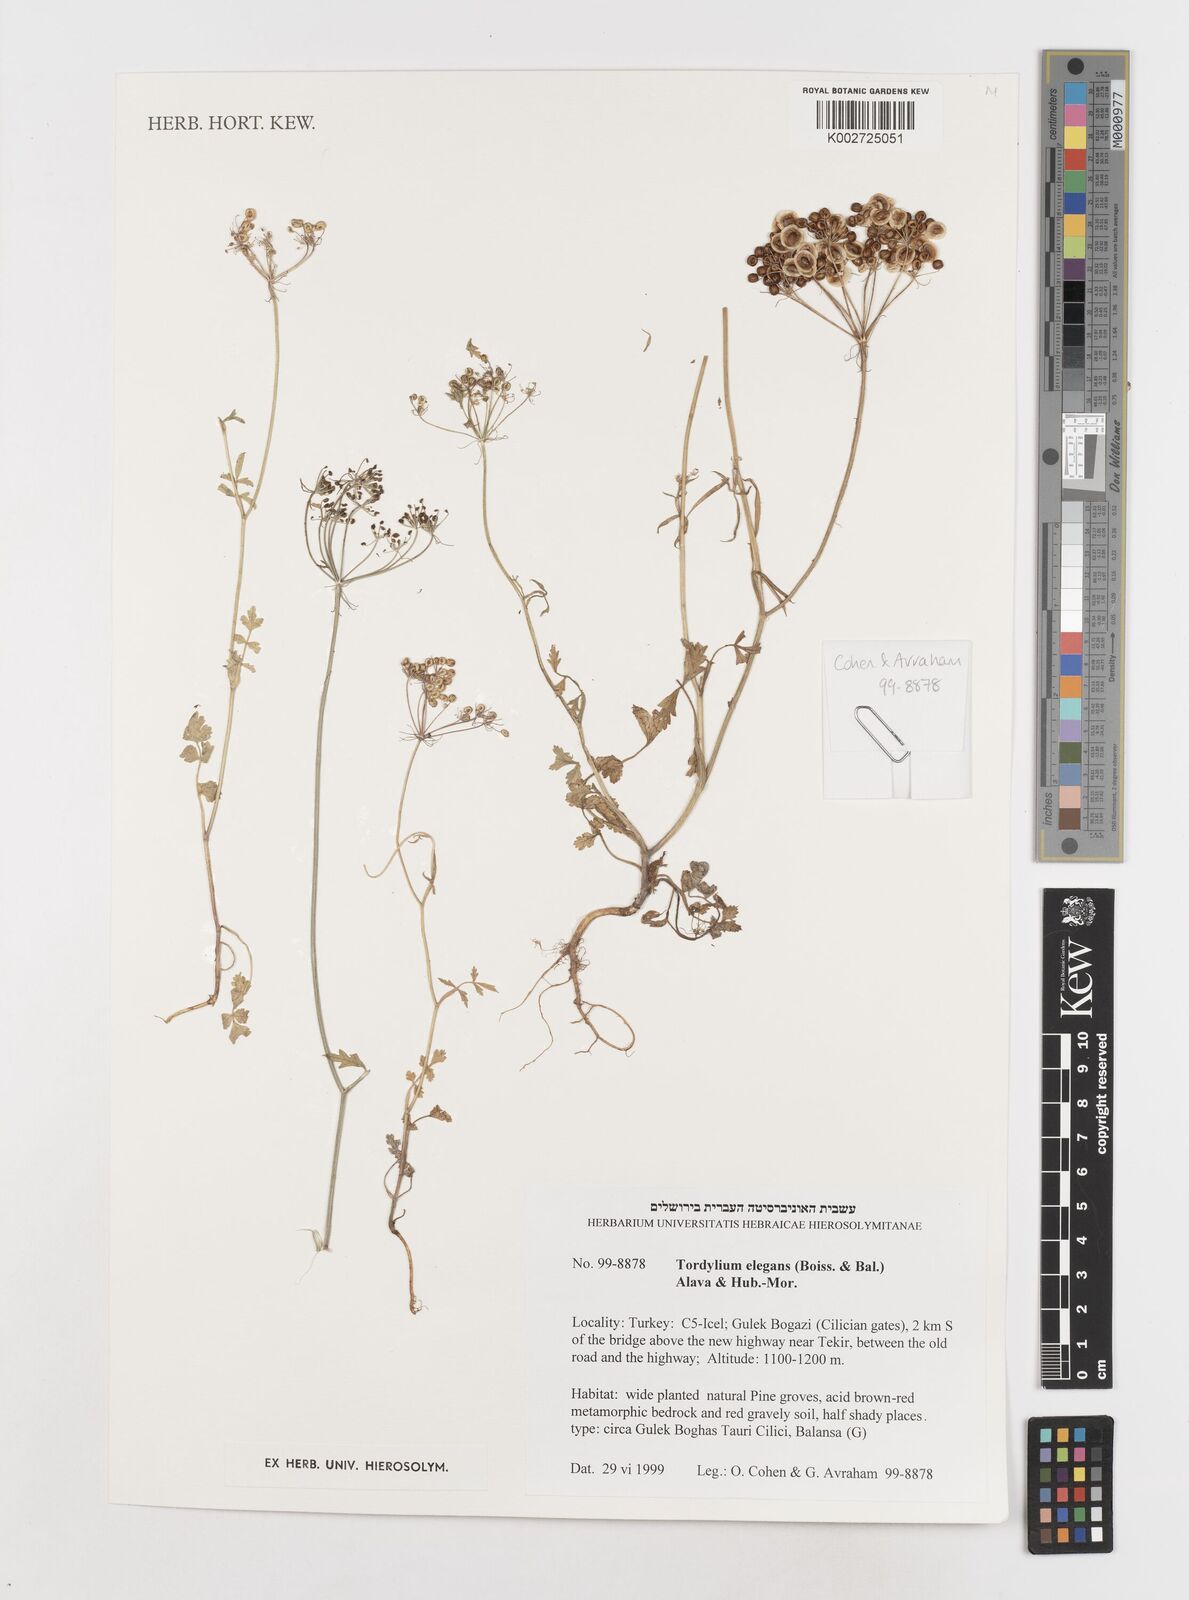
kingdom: Plantae
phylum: Tracheophyta
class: Magnoliopsida
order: Apiales
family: Apiaceae
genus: Ainsworthia
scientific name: Ainsworthia elegans
